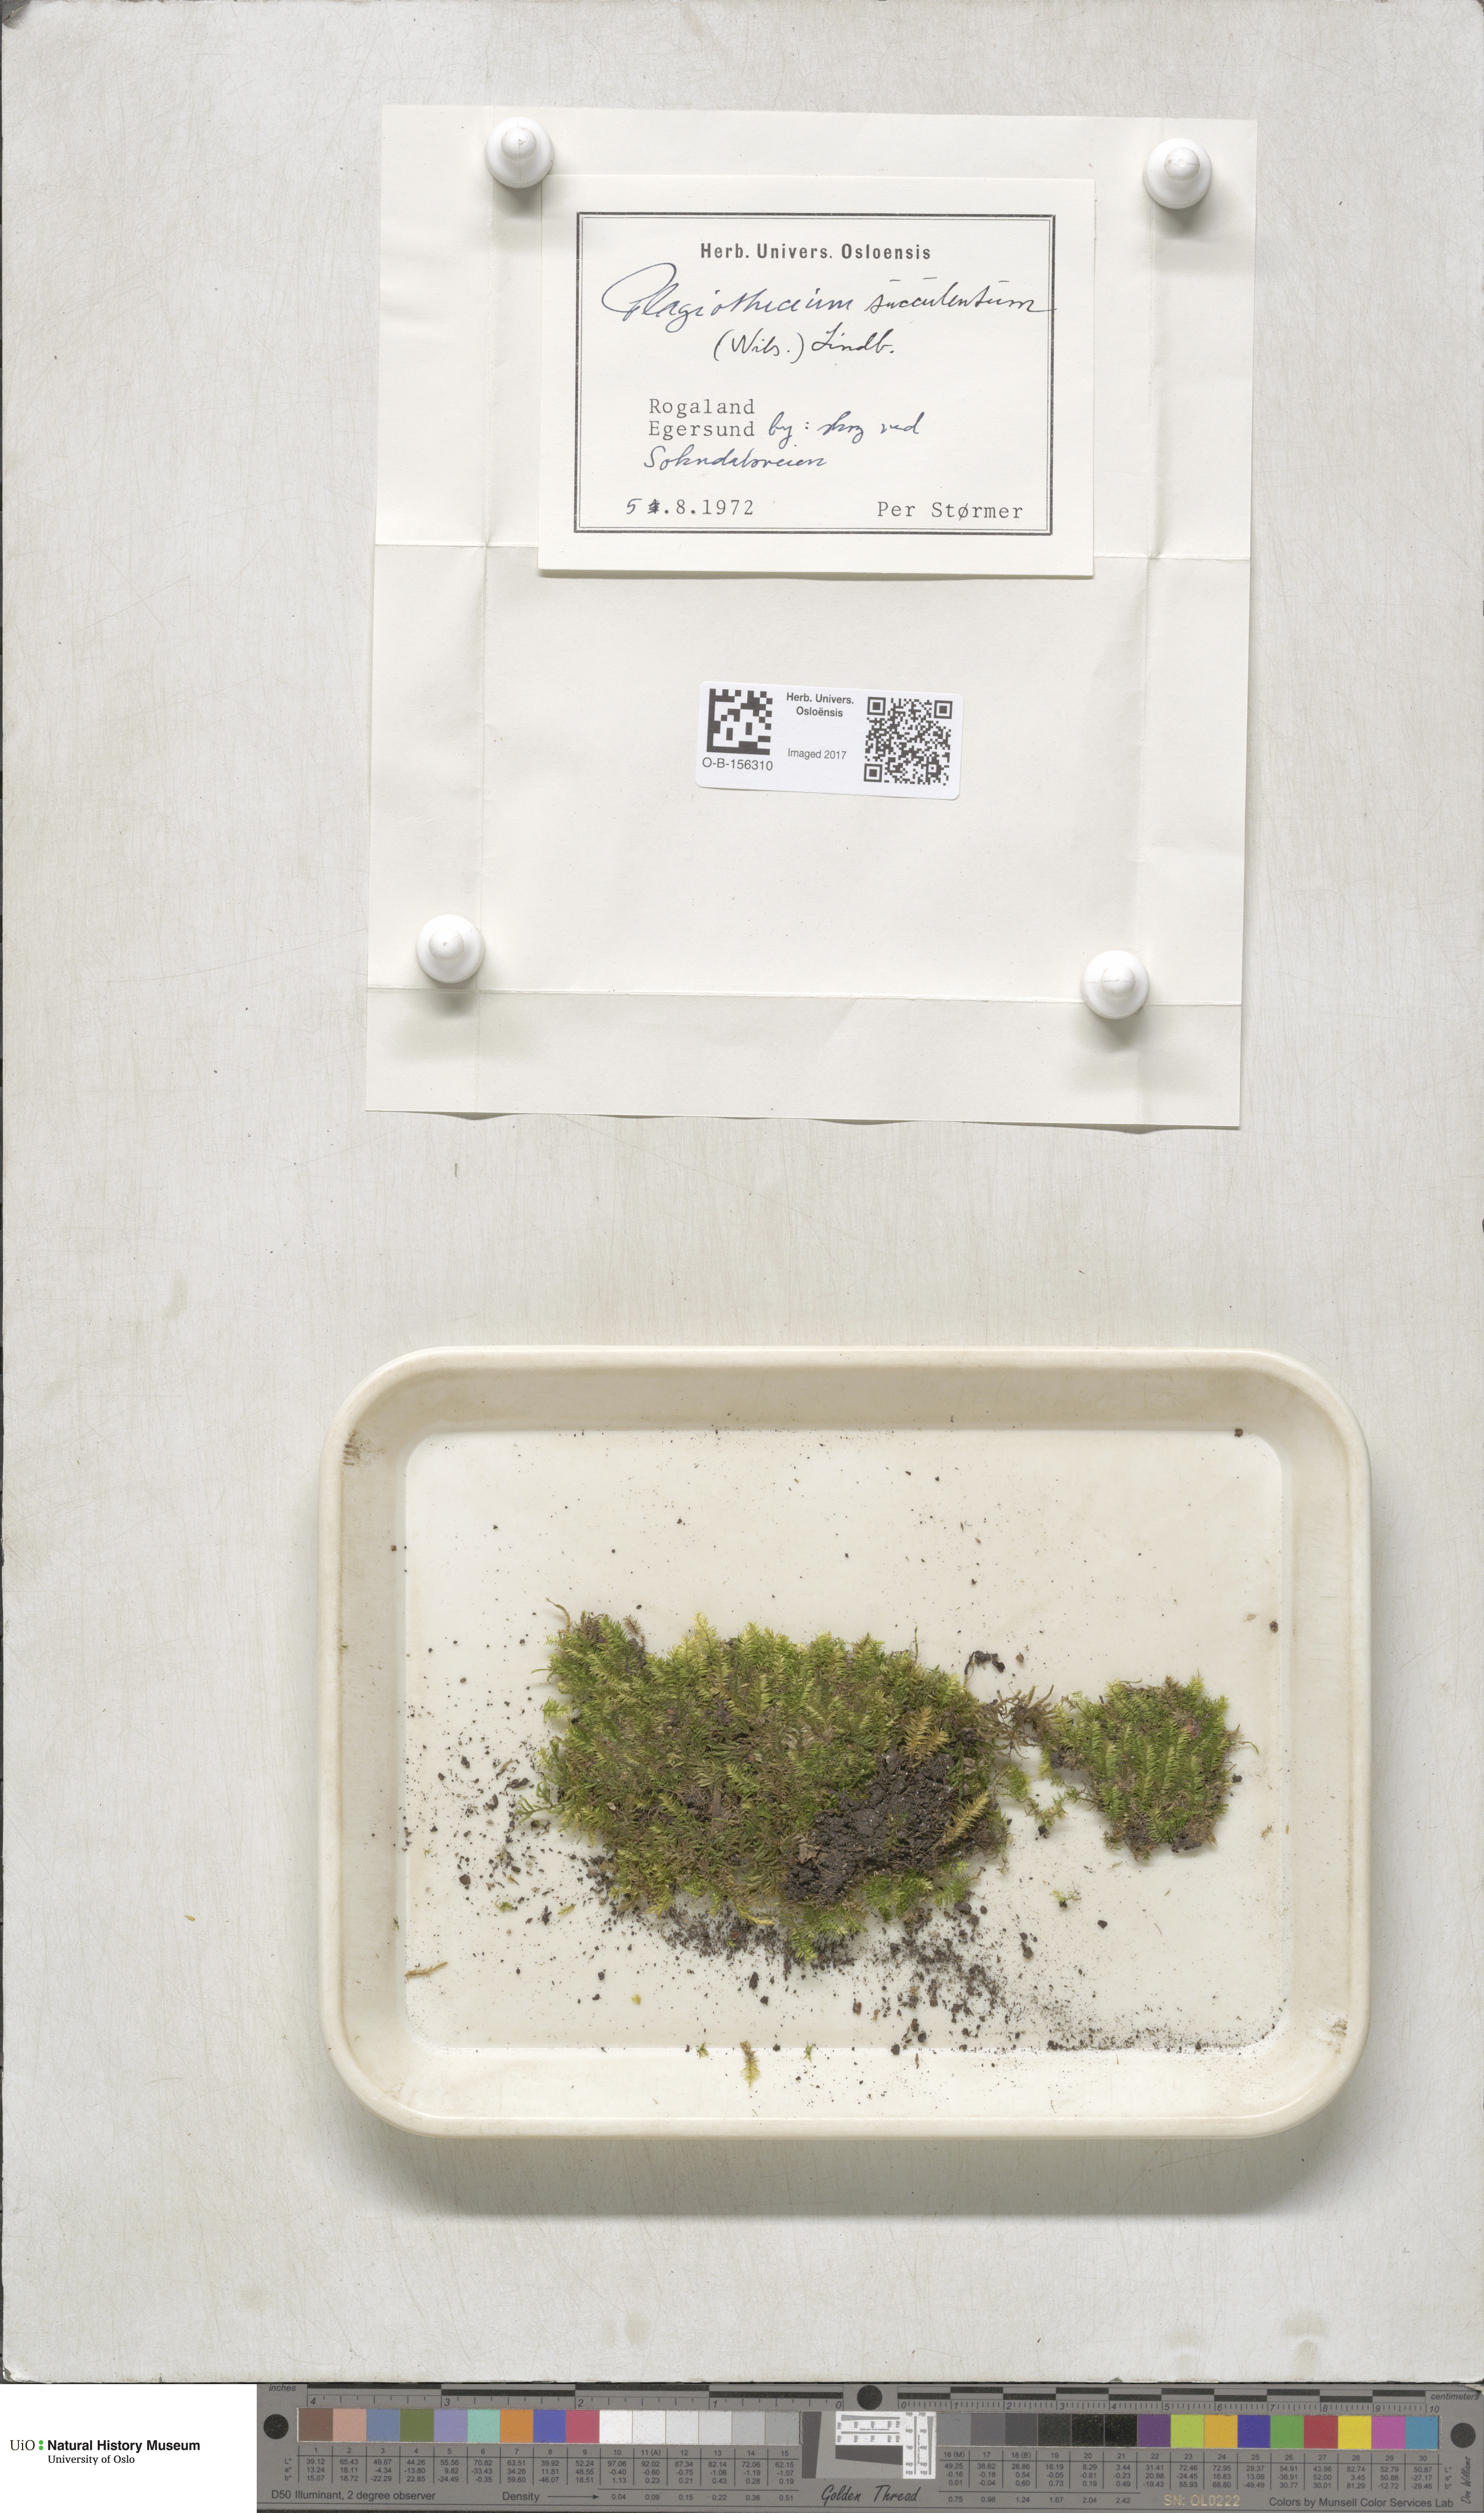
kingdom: Plantae
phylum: Bryophyta
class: Bryopsida
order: Hypnales
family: Plagiotheciaceae
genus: Plagiothecium
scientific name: Plagiothecium nemorale
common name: Woodsy silk-moss
